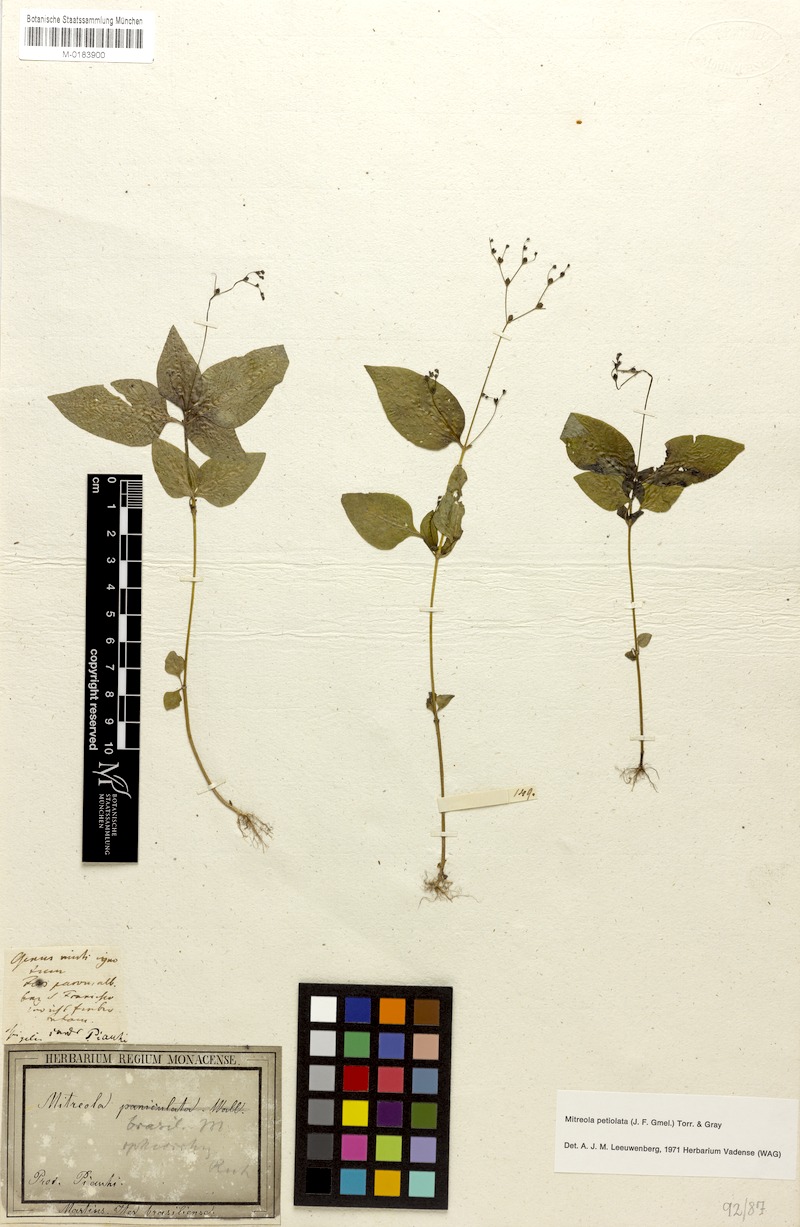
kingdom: Plantae
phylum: Tracheophyta
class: Magnoliopsida
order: Gentianales
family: Loganiaceae
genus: Mitreola
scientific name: Mitreola petiolata
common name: Lax hornpod
